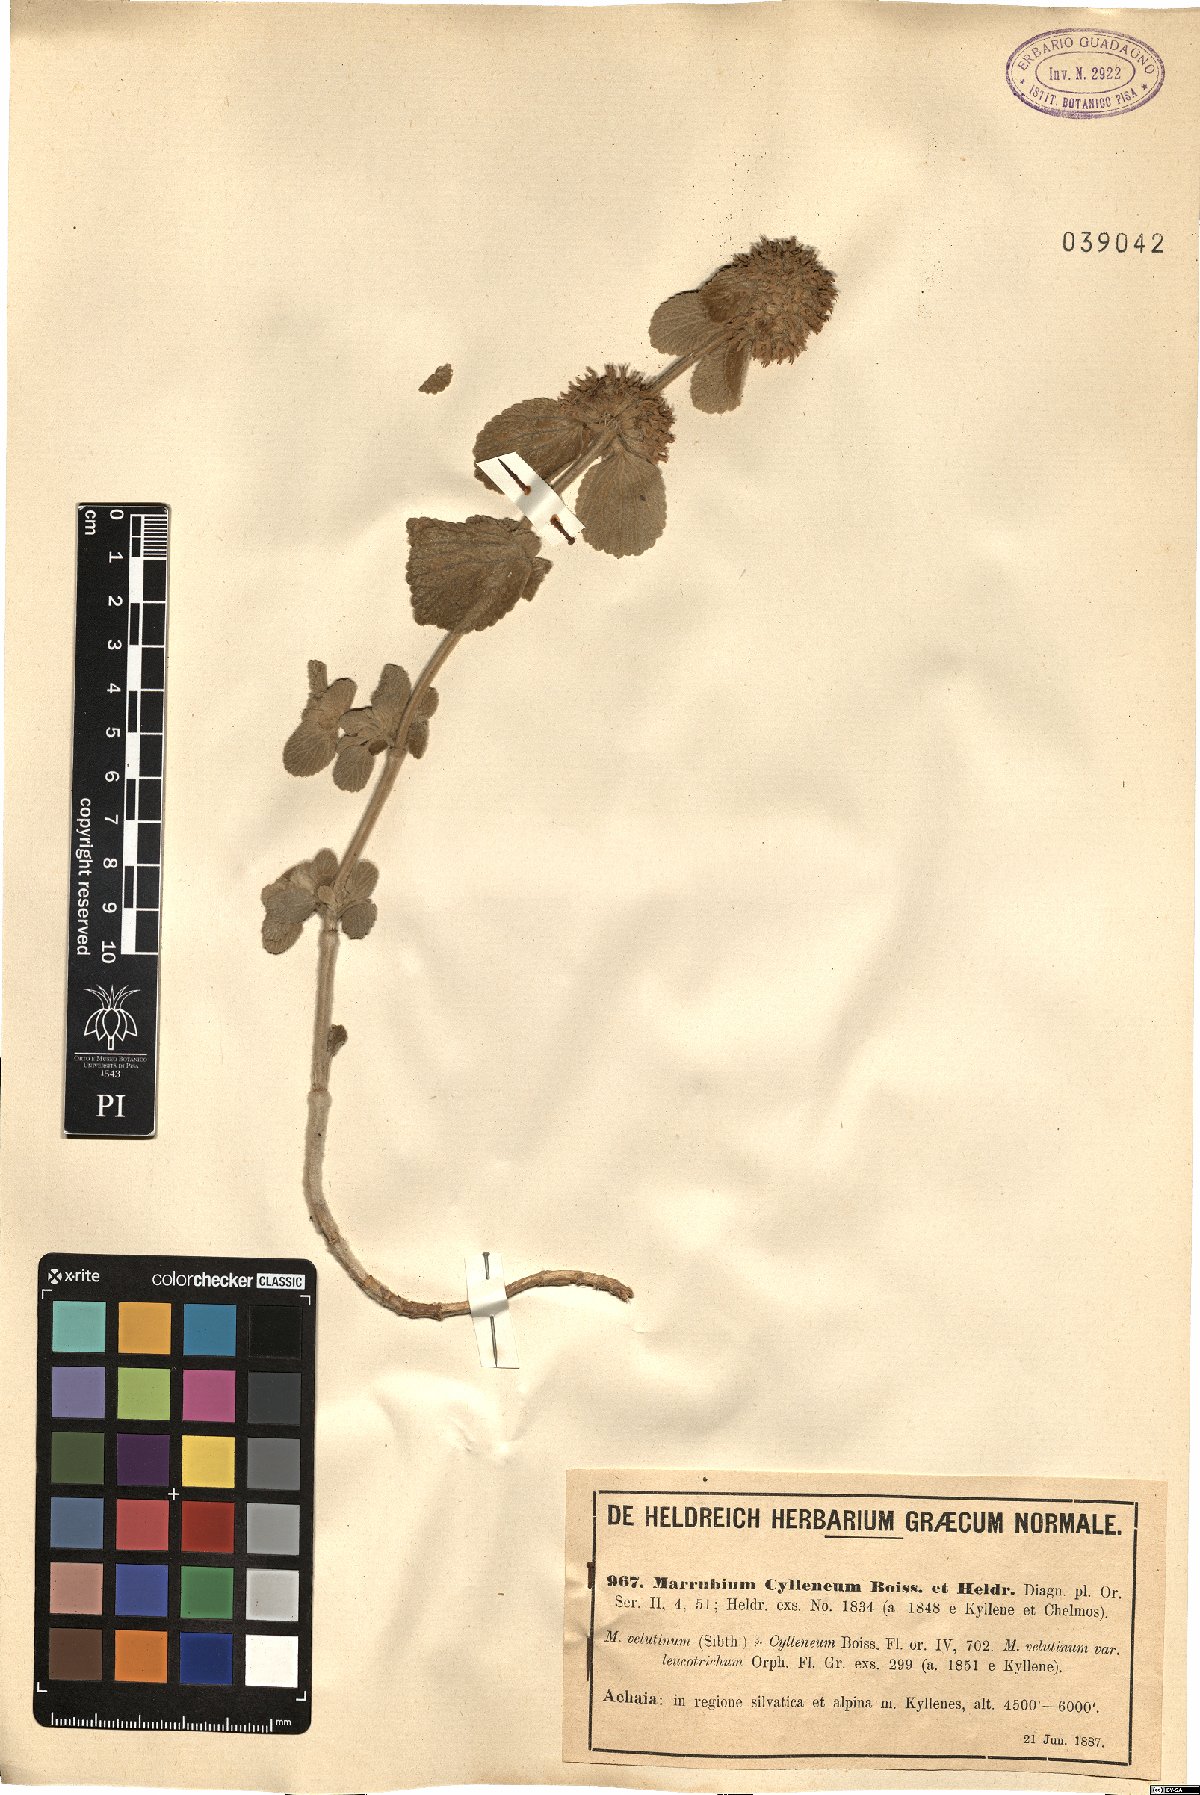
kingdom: Plantae
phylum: Tracheophyta
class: Magnoliopsida
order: Lamiales
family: Lamiaceae
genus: Marrubium
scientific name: Marrubium cylleneum
